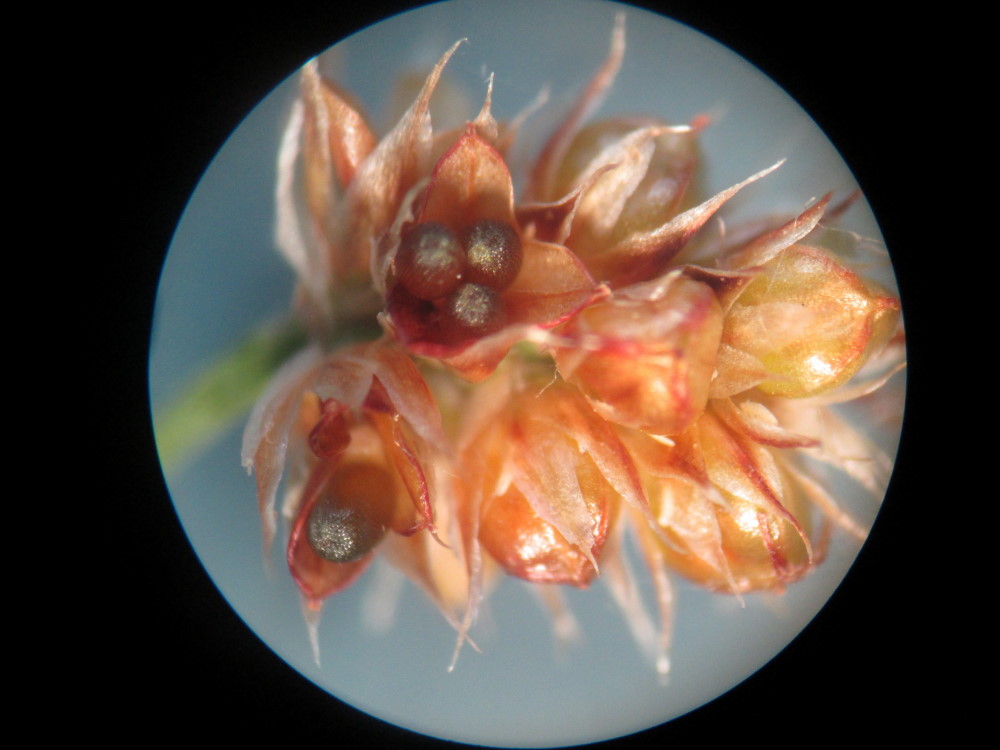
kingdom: Plantae
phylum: Tracheophyta
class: Liliopsida
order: Poales
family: Juncaceae
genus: Luzula
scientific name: Luzula multiflora
